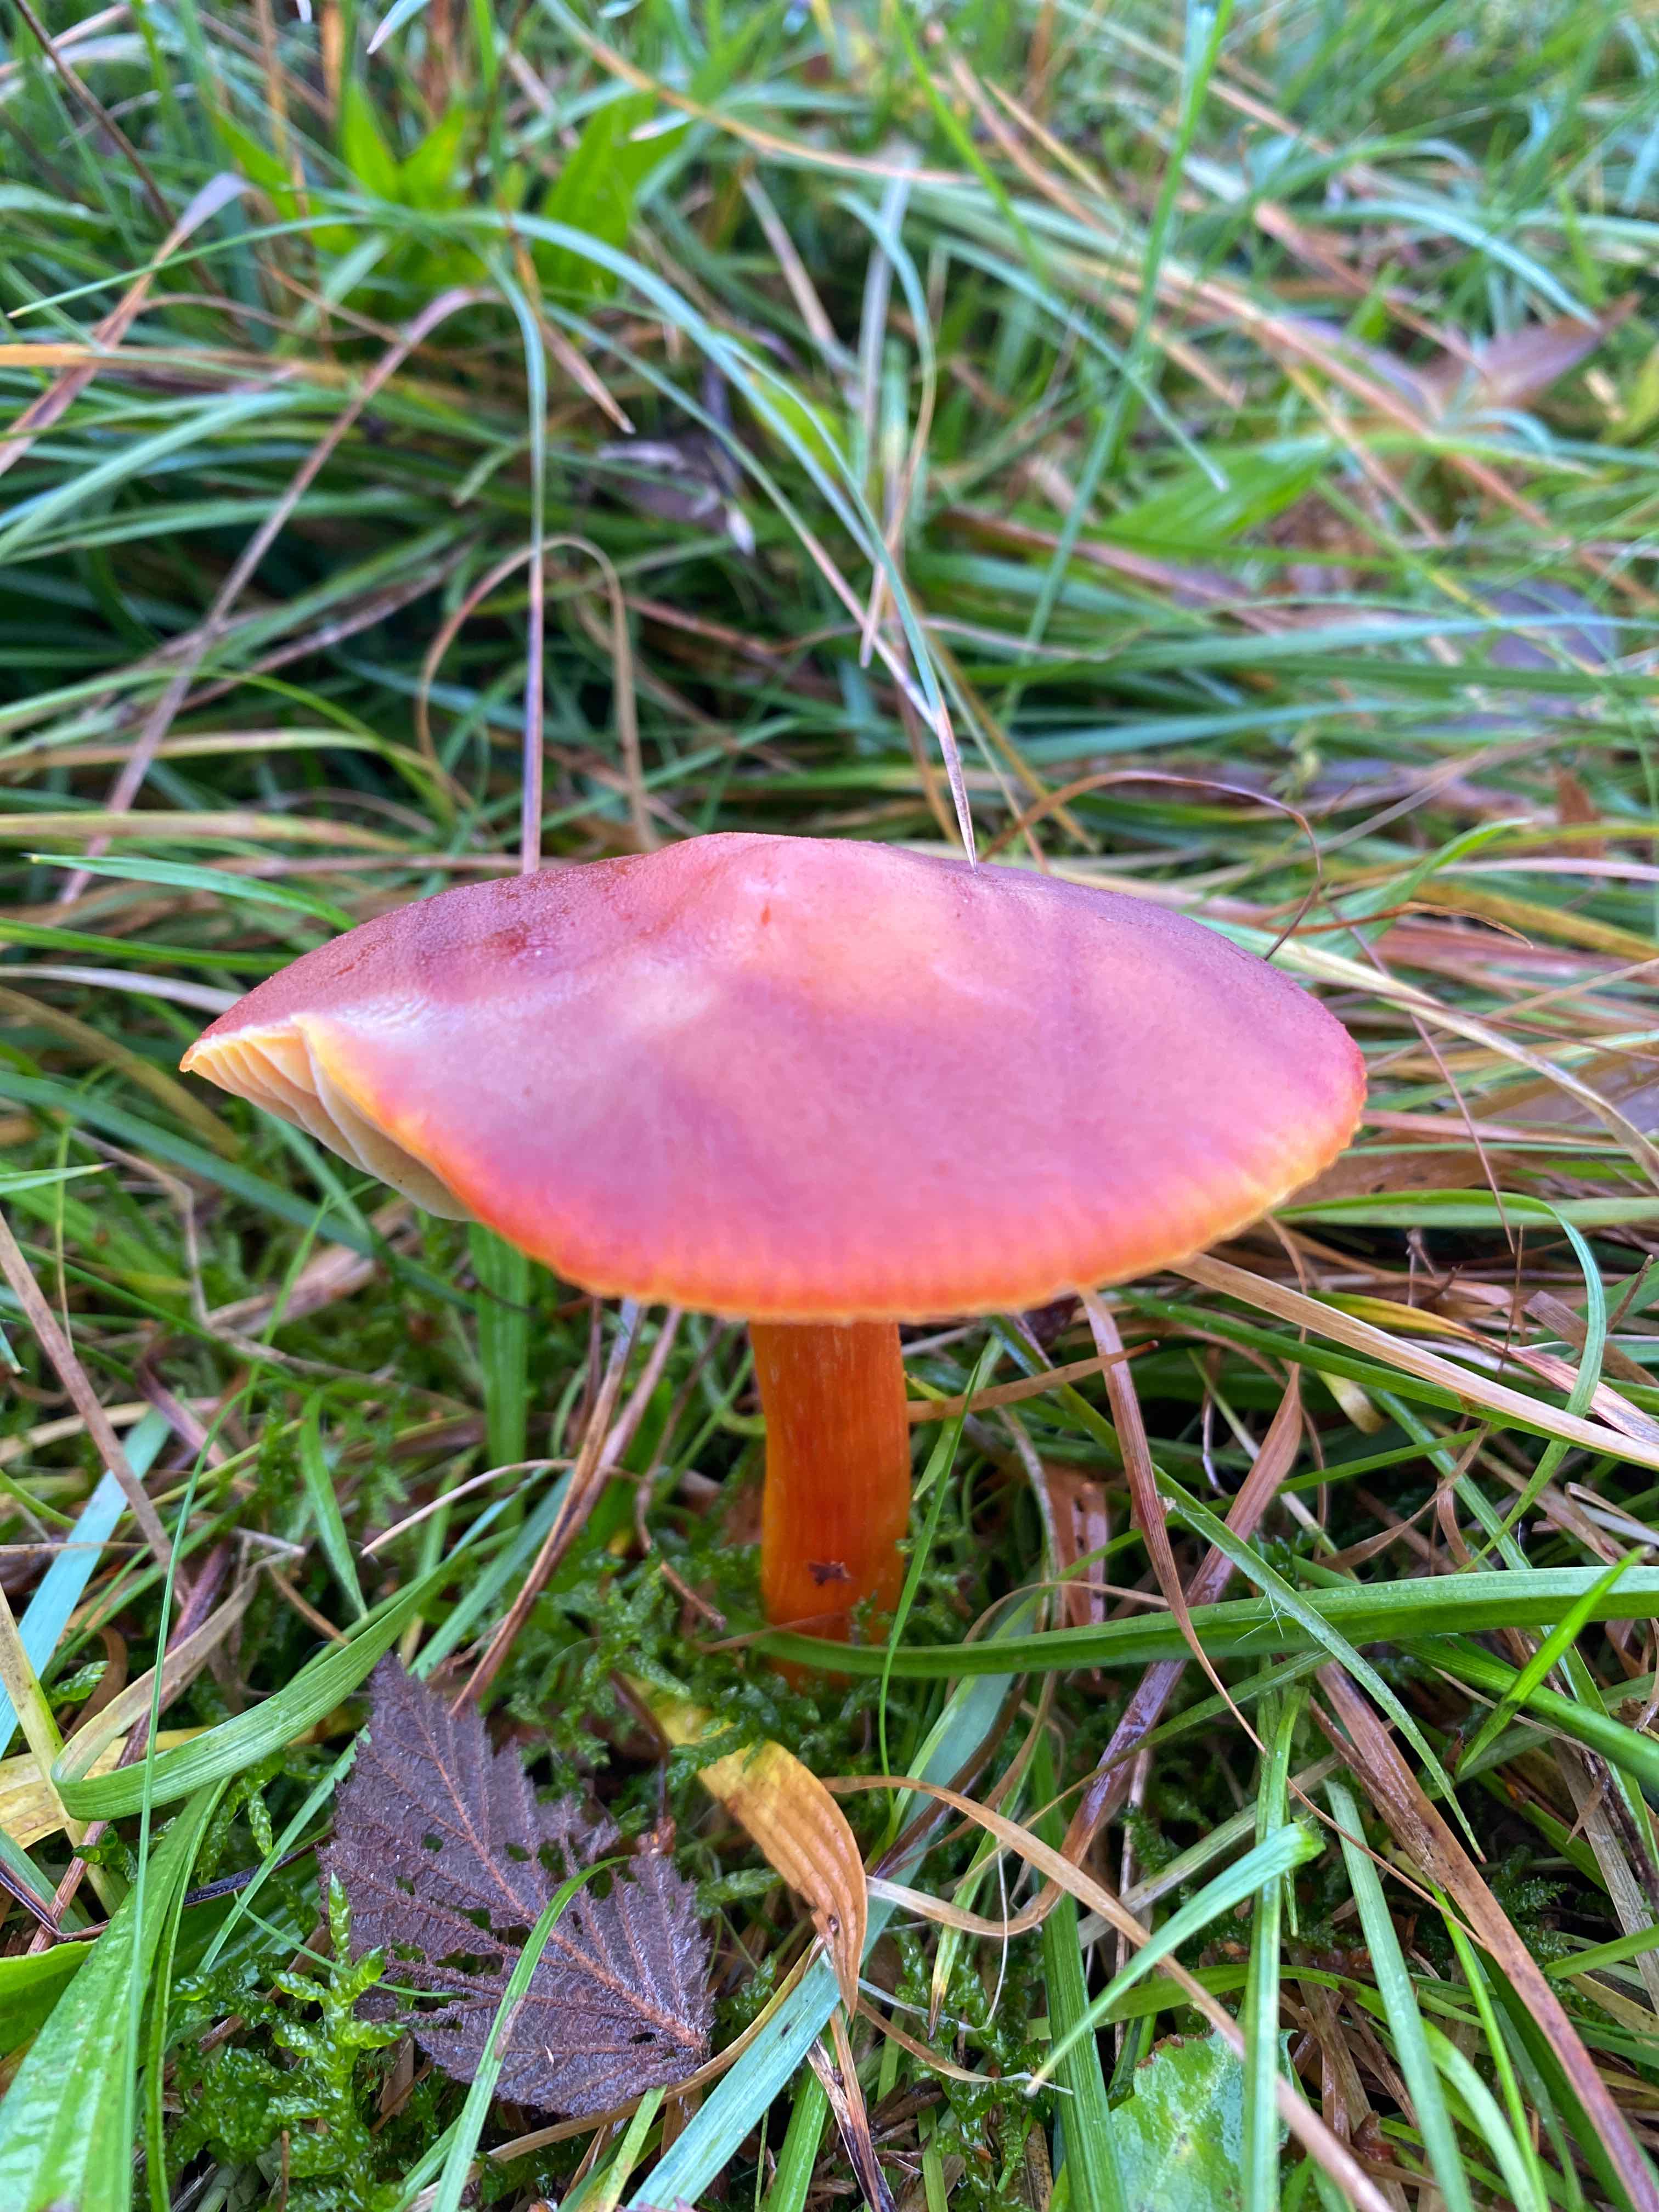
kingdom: Fungi
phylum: Basidiomycota
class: Agaricomycetes
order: Agaricales
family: Hygrophoraceae
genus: Hygrocybe
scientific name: Hygrocybe punicea
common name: skarlagen-vokshat
